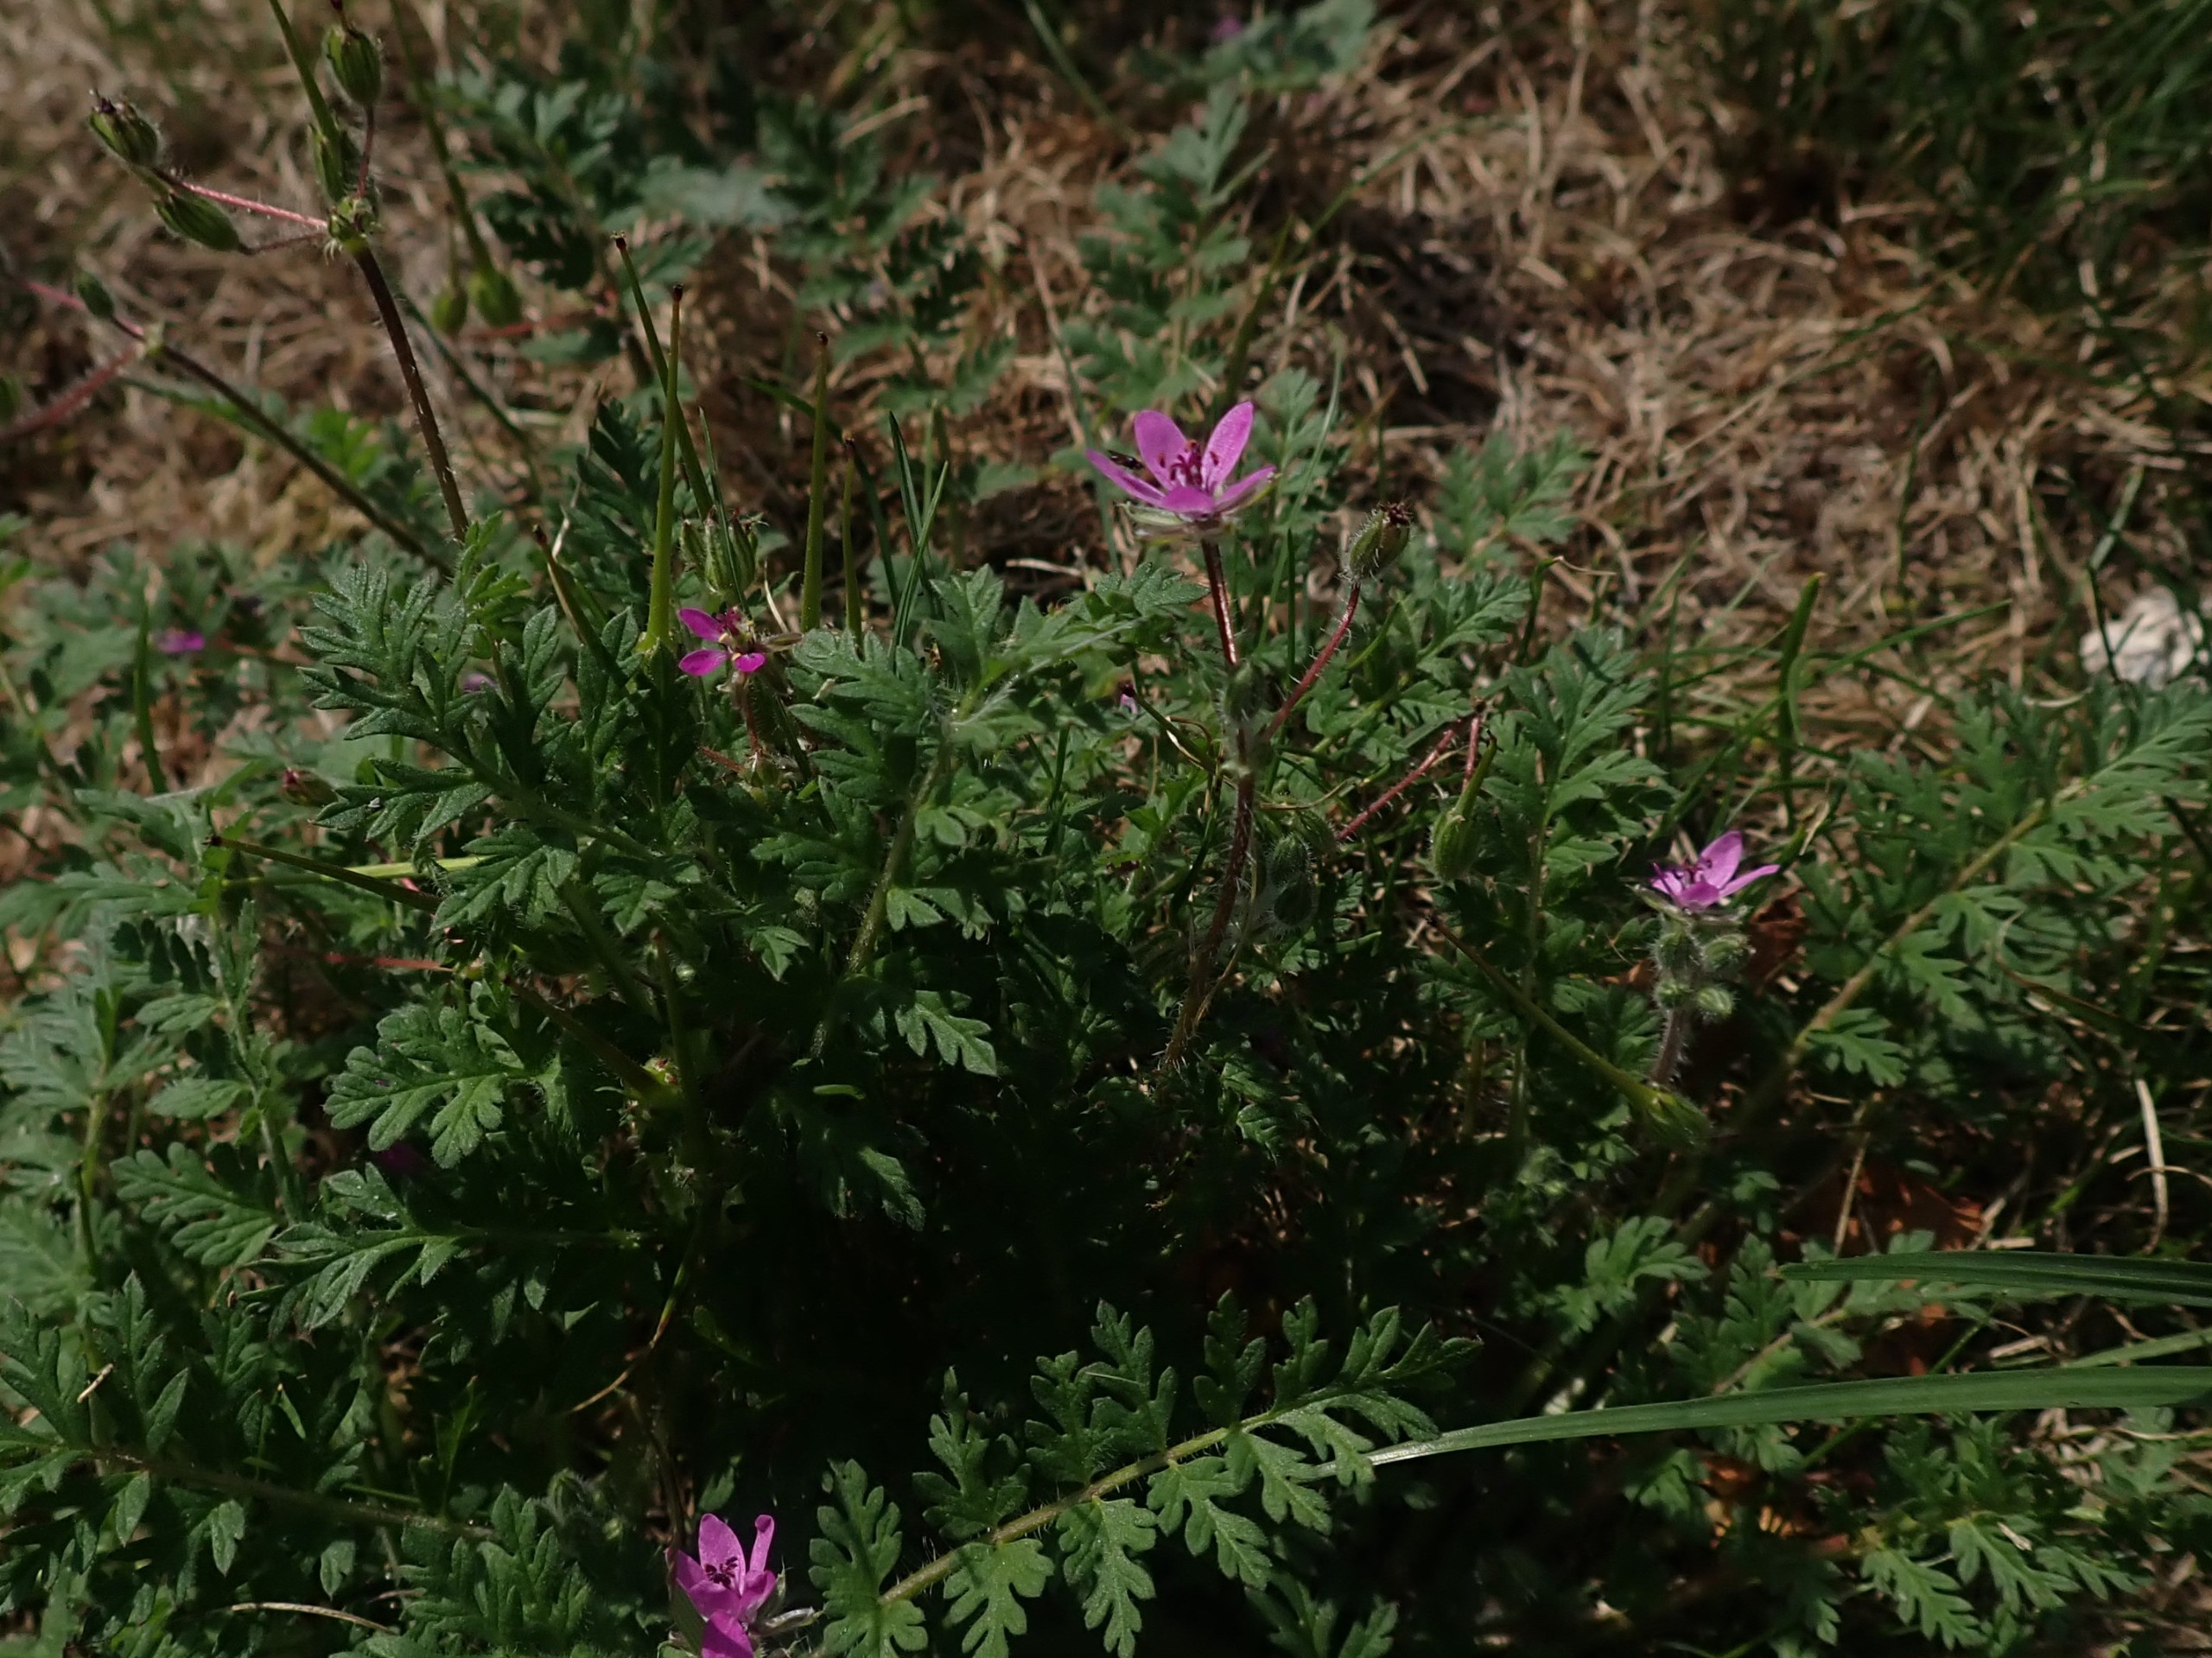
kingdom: Plantae
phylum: Tracheophyta
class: Magnoliopsida
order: Geraniales
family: Geraniaceae
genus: Erodium
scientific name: Erodium cicutarium
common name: Hejrenæb
